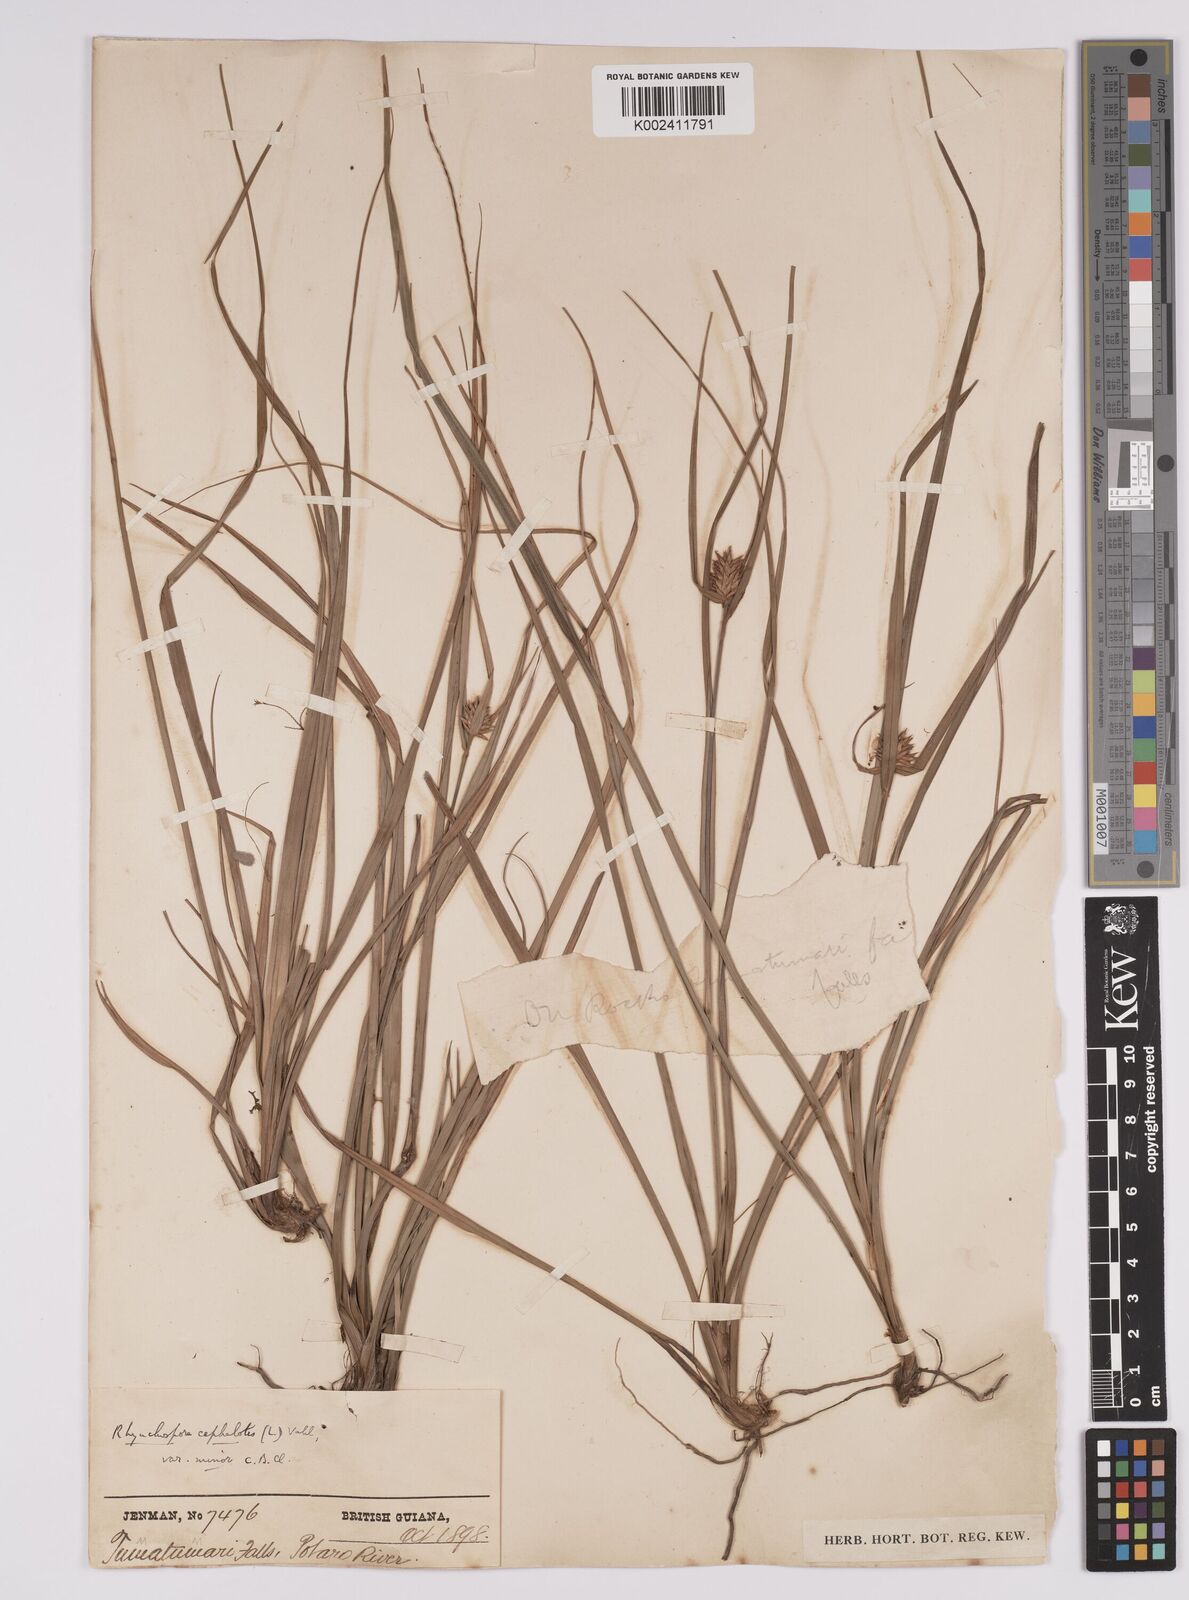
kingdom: Plantae
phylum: Tracheophyta
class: Liliopsida
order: Poales
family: Cyperaceae
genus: Rhynchospora
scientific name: Rhynchospora cephalotes
